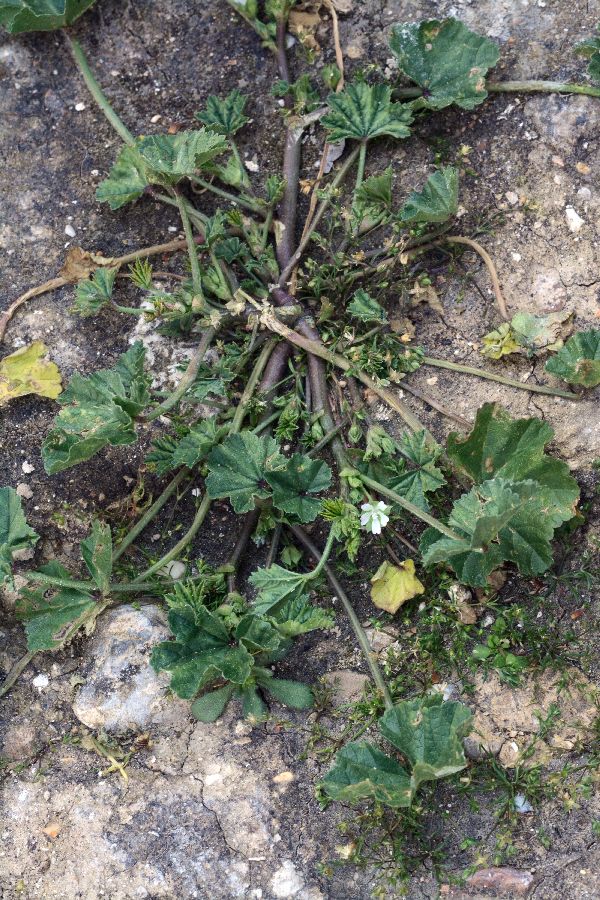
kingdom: Plantae
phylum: Tracheophyta
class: Magnoliopsida
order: Malvales
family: Malvaceae
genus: Malva
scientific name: Malva sylvestris
